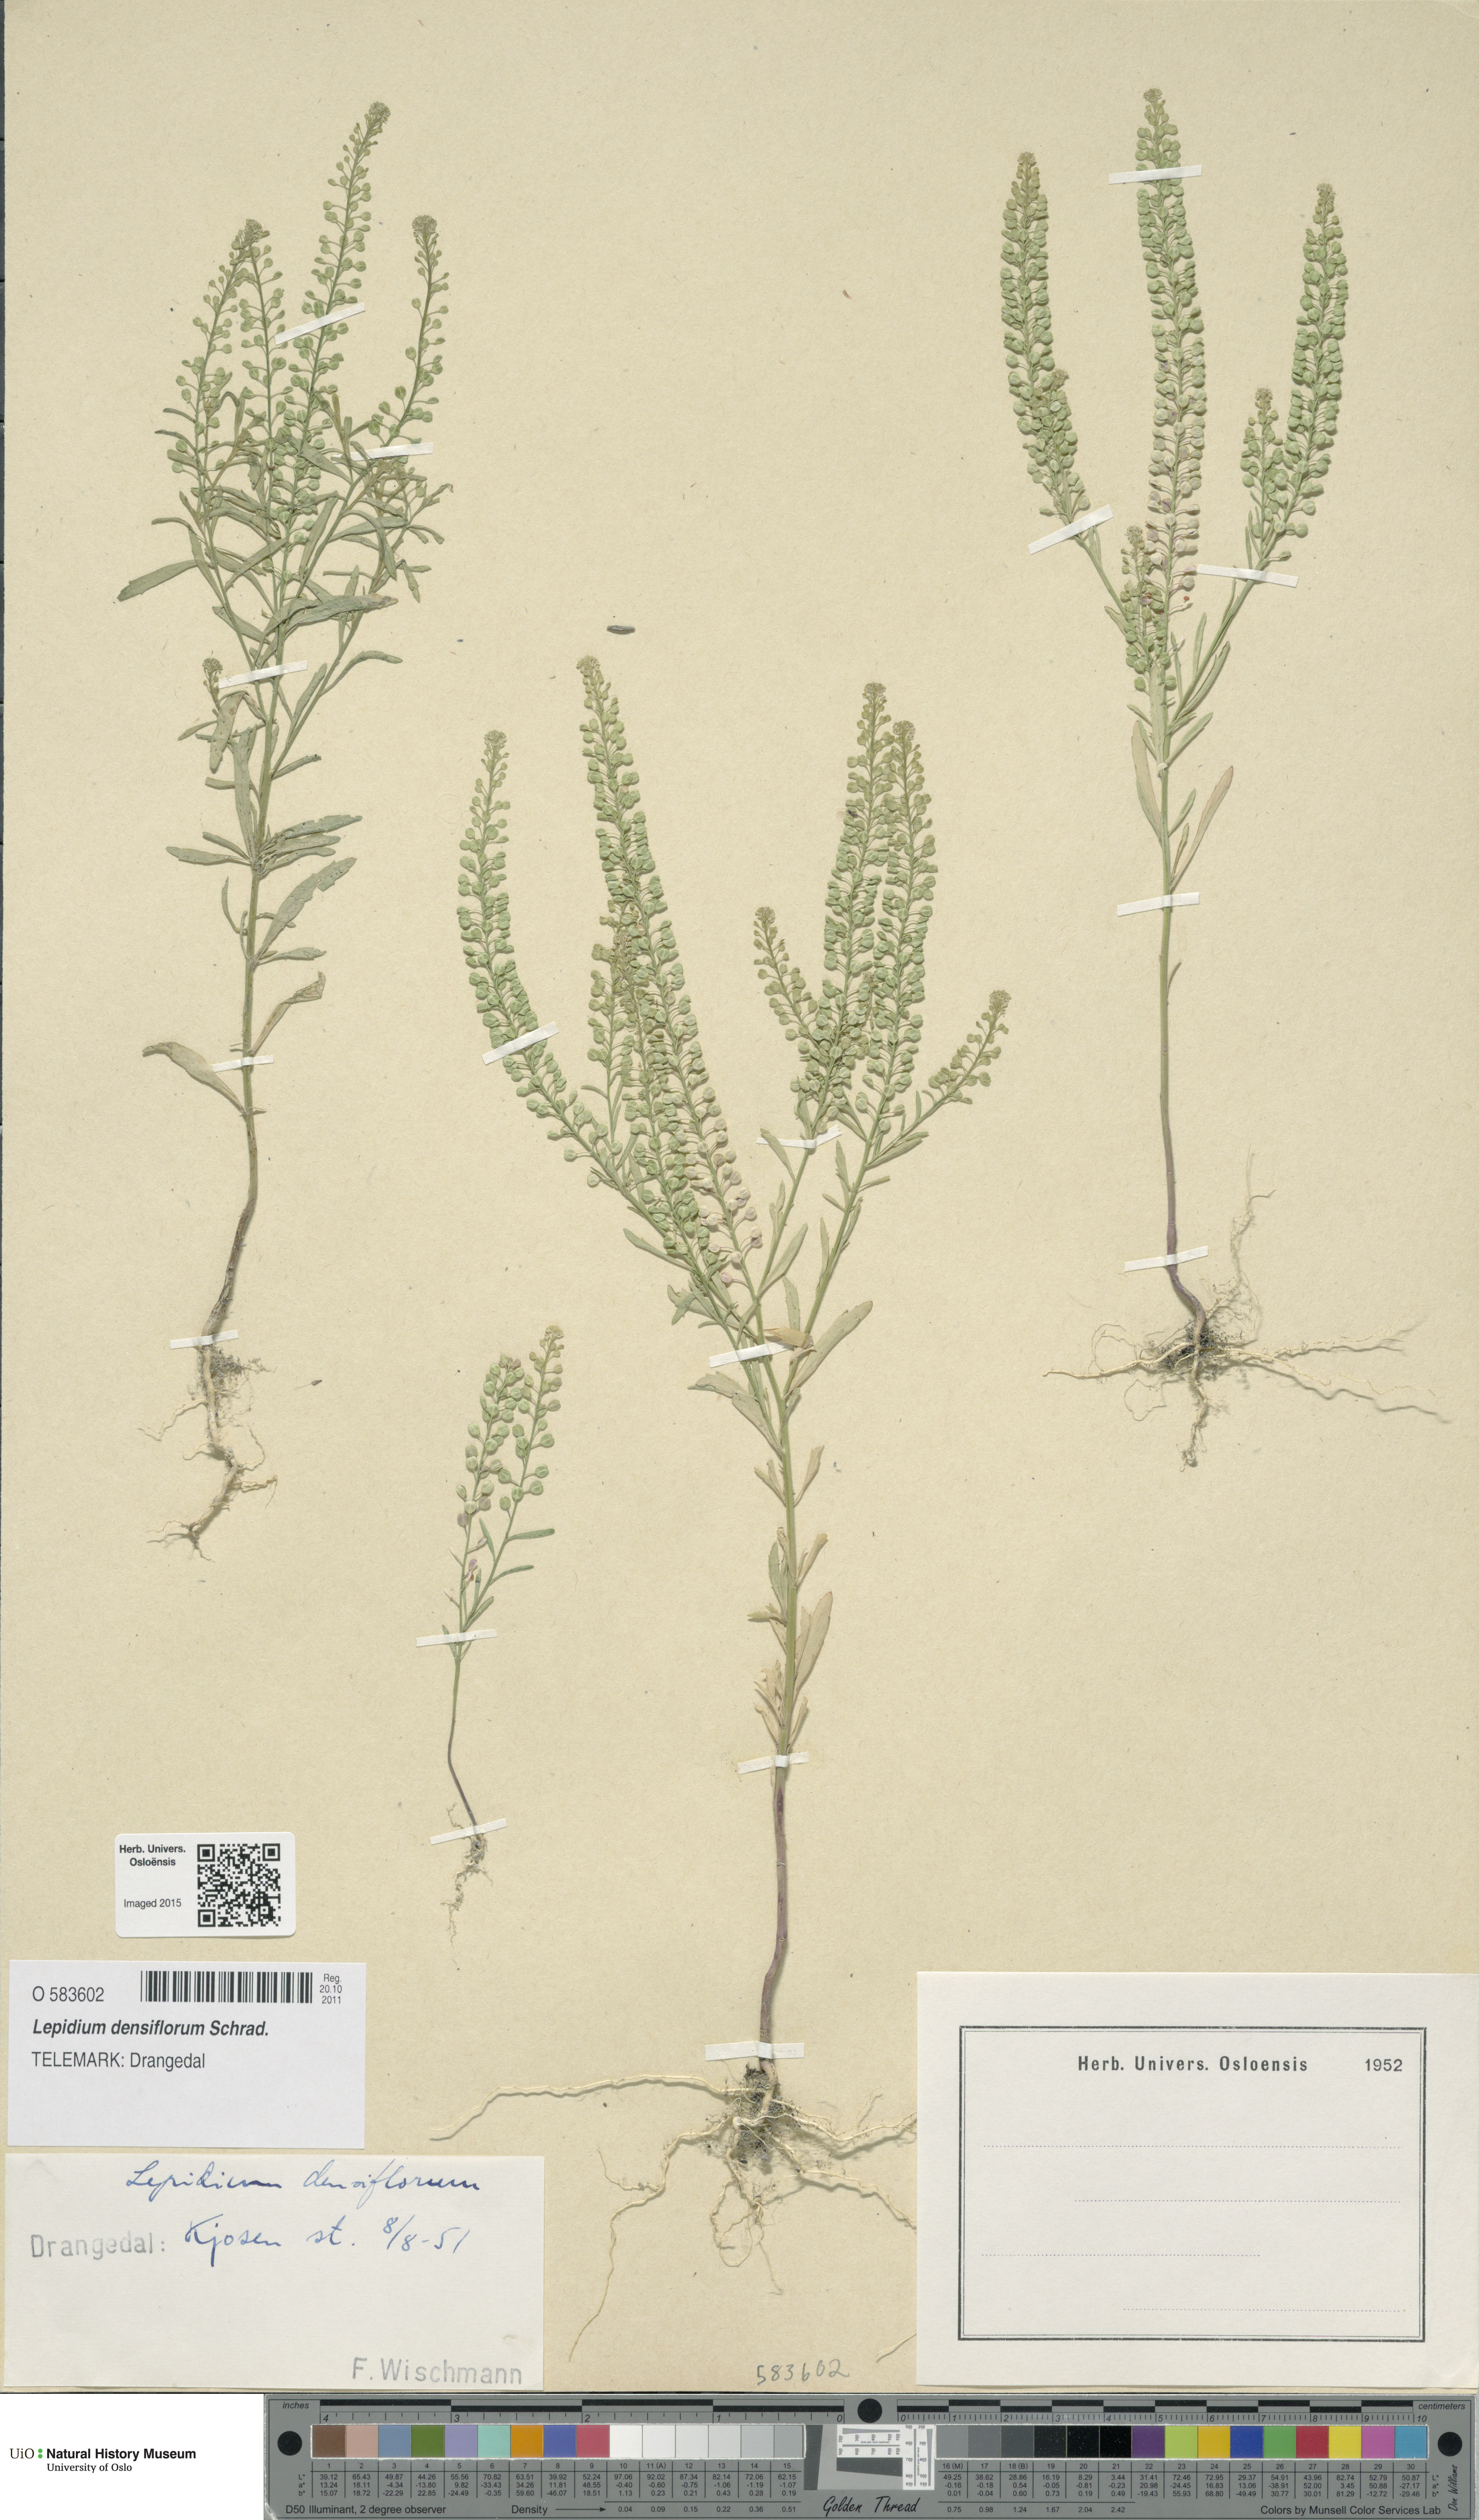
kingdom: Plantae
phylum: Tracheophyta
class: Magnoliopsida
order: Brassicales
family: Brassicaceae
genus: Lepidium
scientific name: Lepidium densiflorum
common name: Miner's pepperwort
